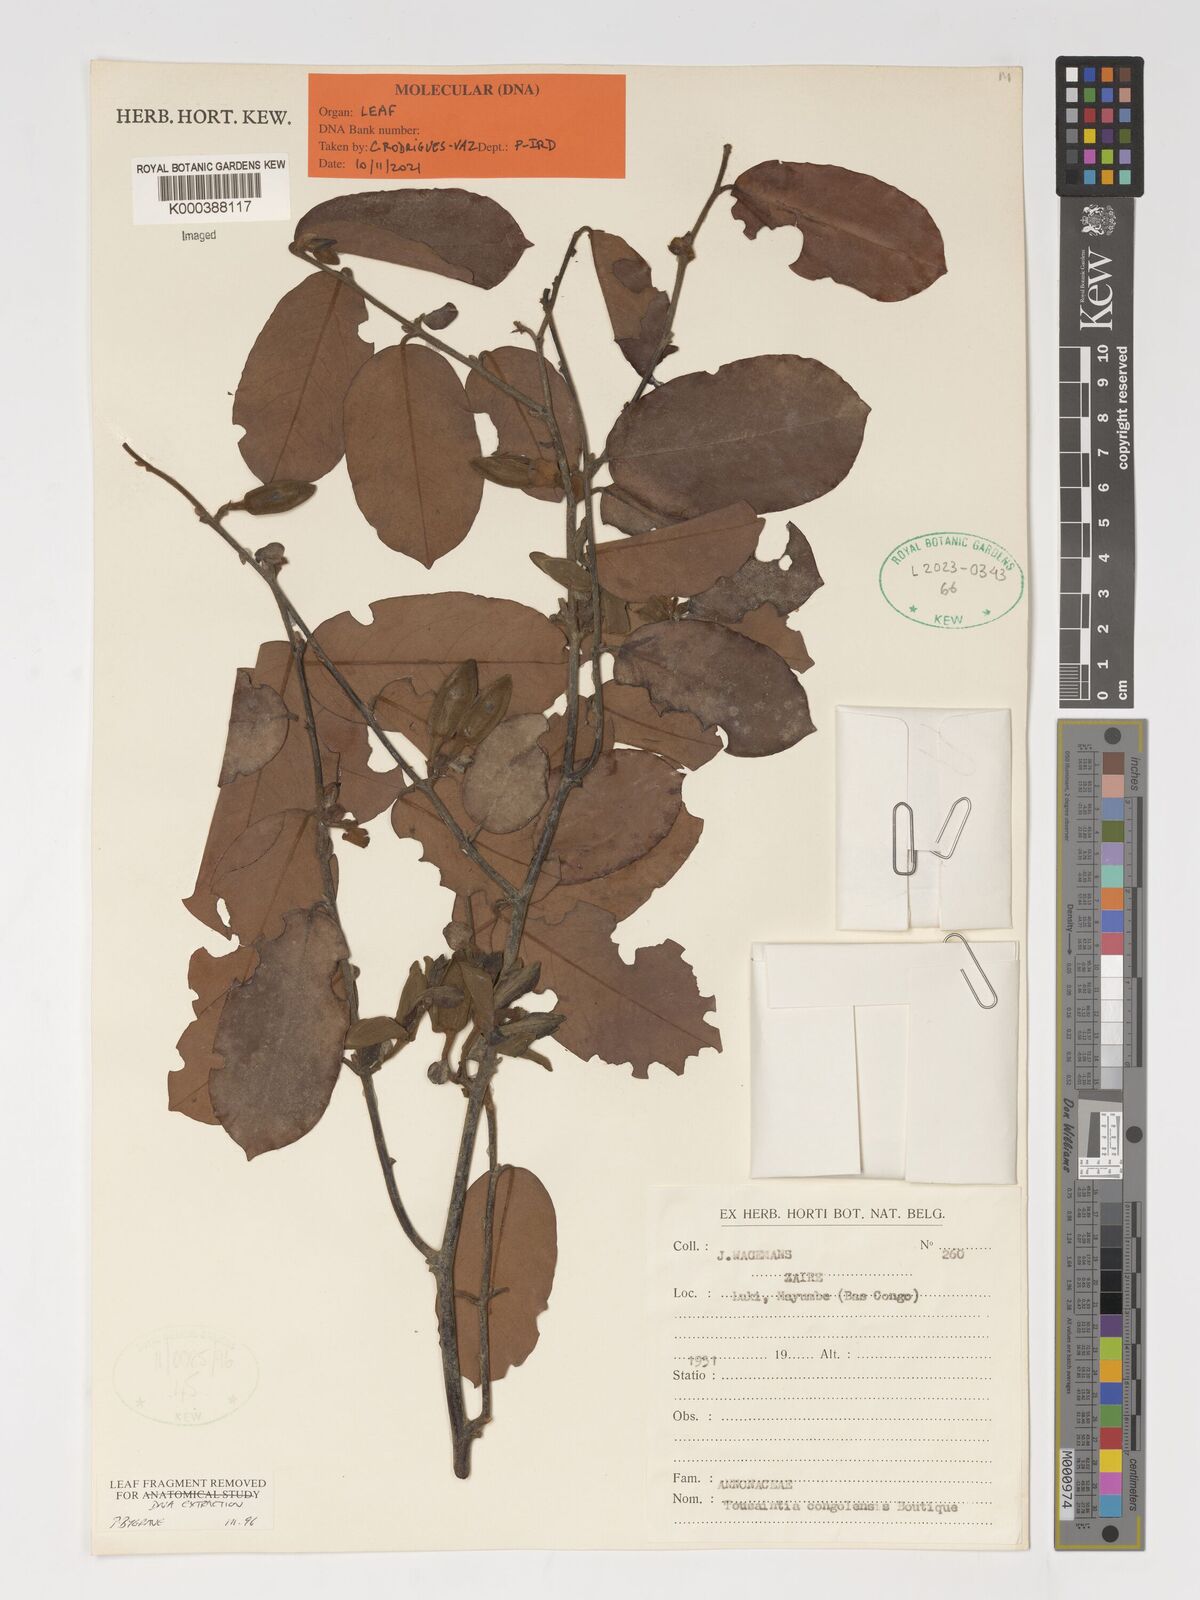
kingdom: Plantae
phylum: Tracheophyta
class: Magnoliopsida
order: Magnoliales
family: Annonaceae
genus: Toussaintia
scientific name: Toussaintia congolensis
